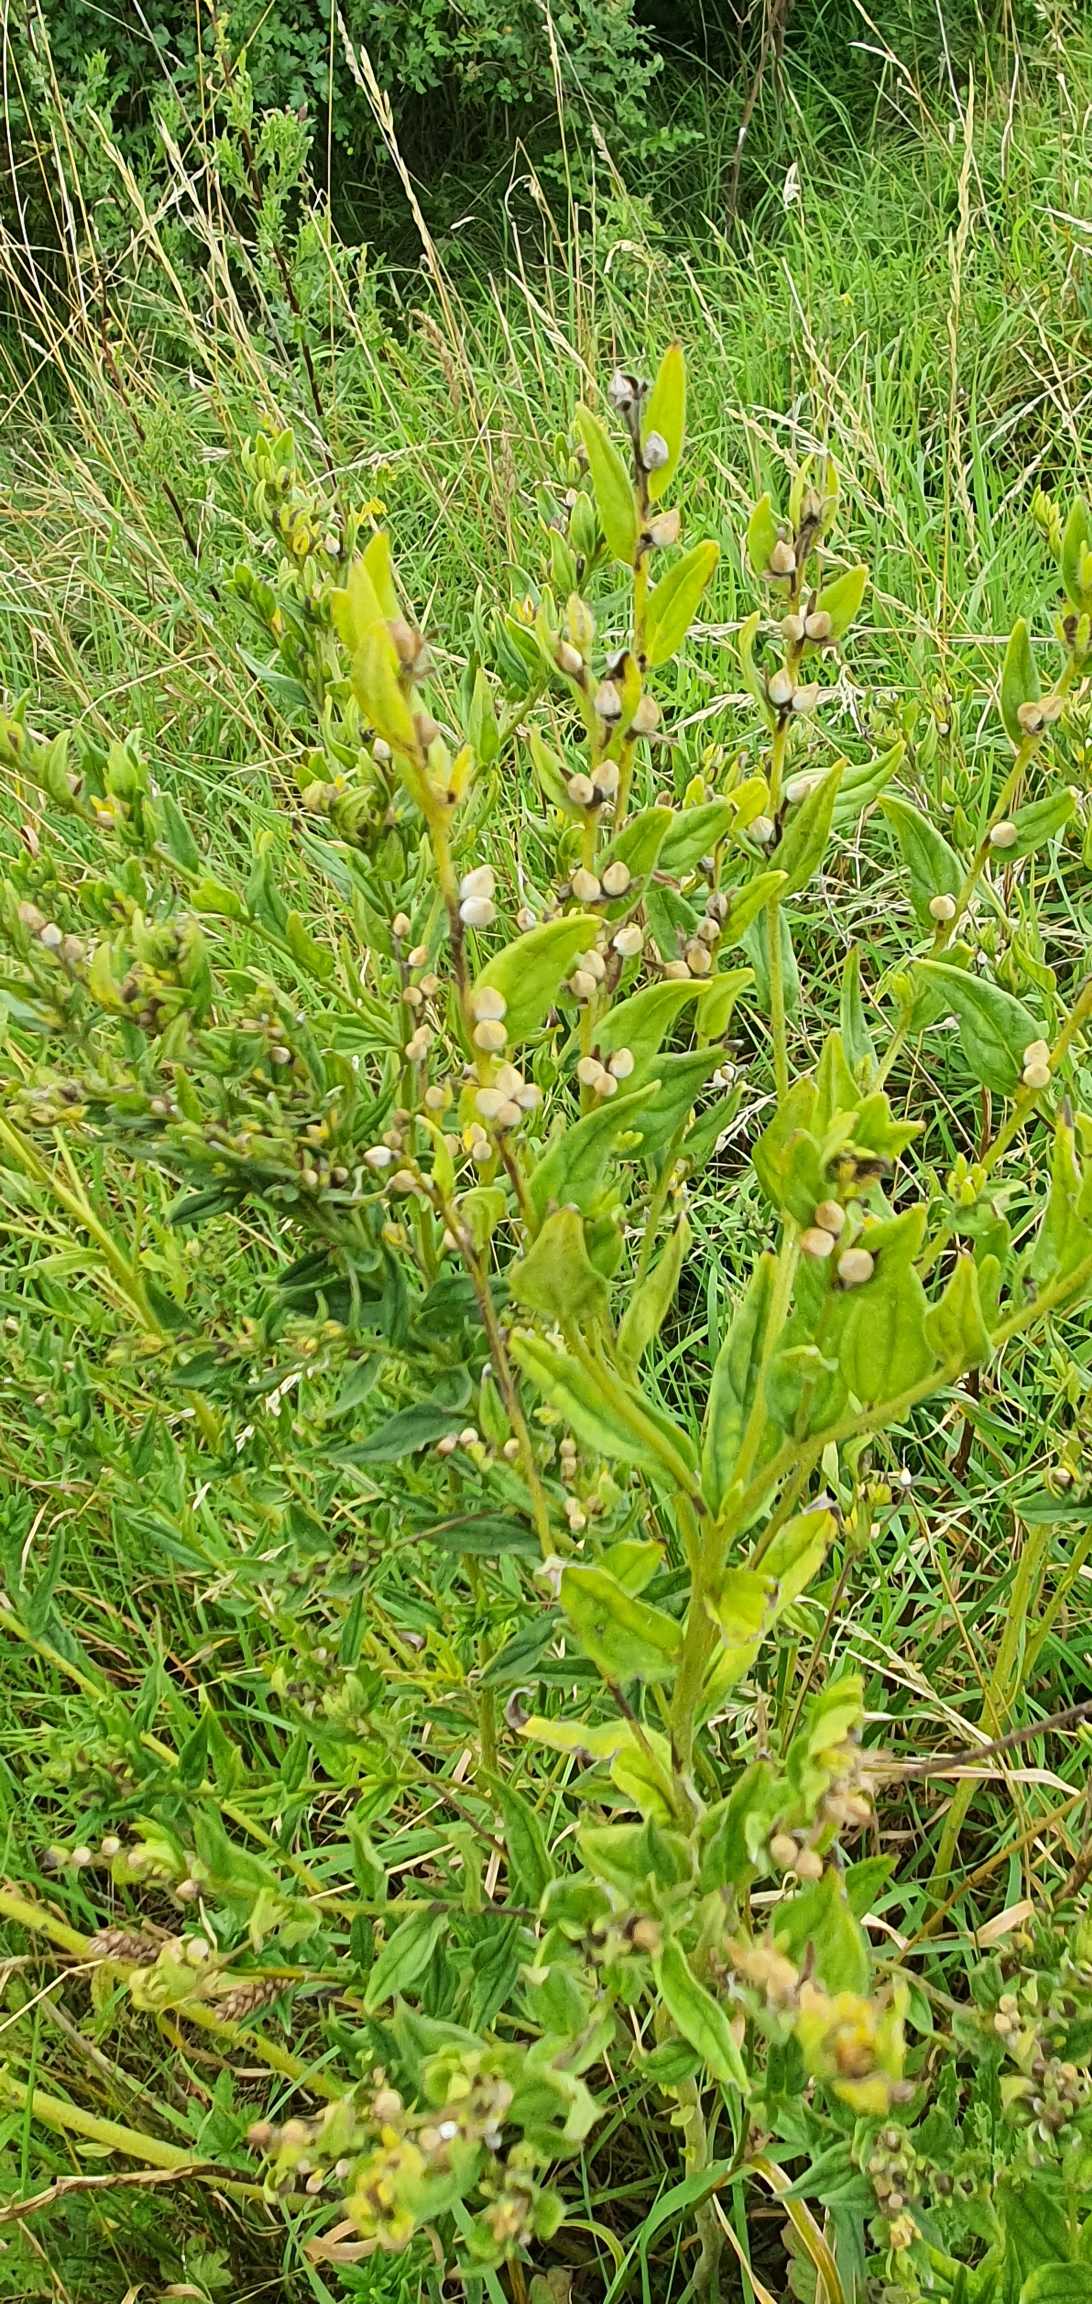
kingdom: Plantae
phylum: Tracheophyta
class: Magnoliopsida
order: Boraginales
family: Boraginaceae
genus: Lithospermum
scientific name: Lithospermum officinale
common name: Læge-stenfrø
